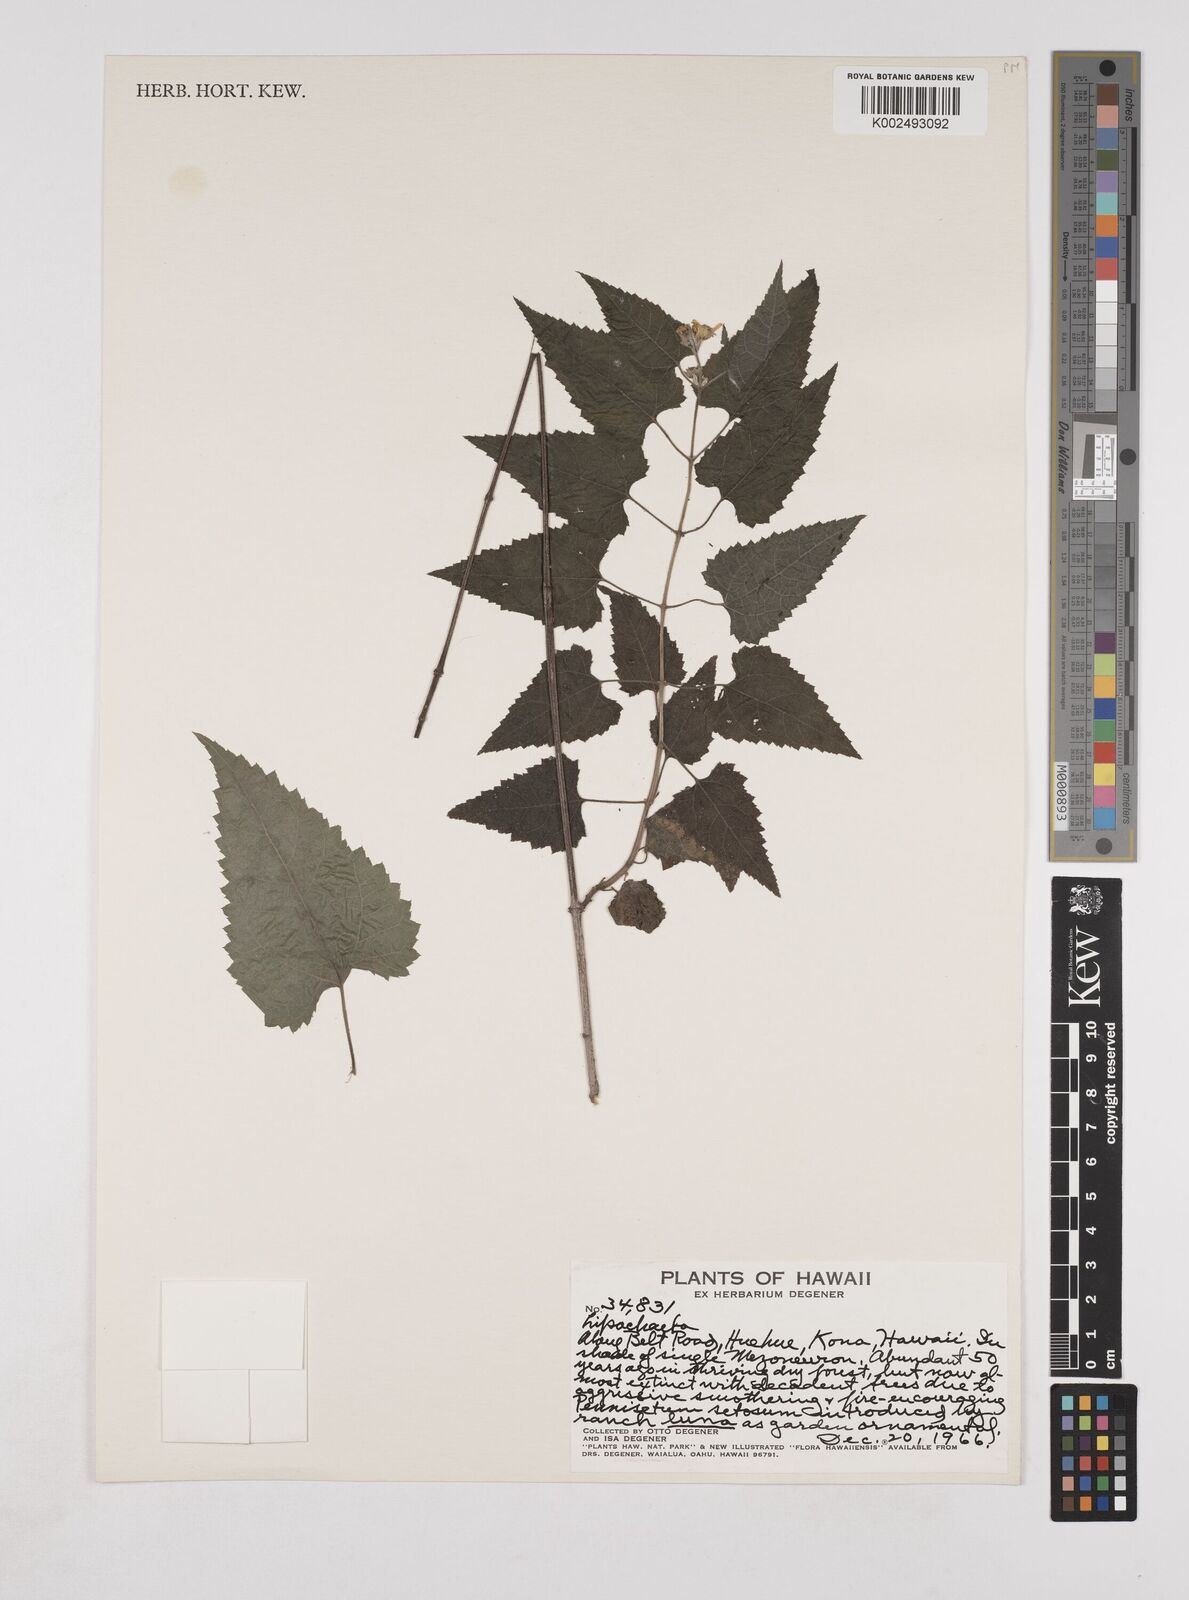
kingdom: Plantae
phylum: Tracheophyta
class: Magnoliopsida
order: Asterales
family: Asteraceae
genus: Lipochaeta
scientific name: Lipochaeta
